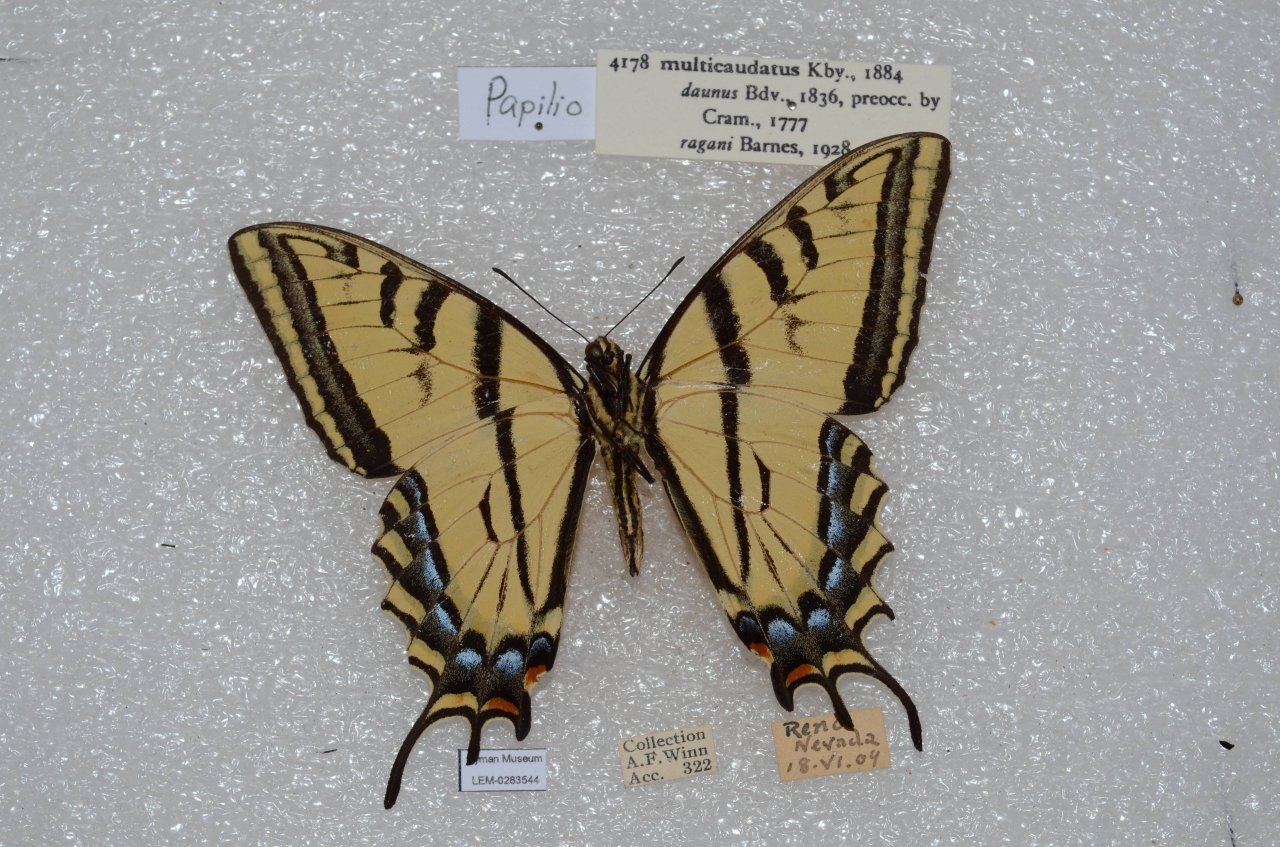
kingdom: Animalia
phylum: Arthropoda
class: Insecta
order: Lepidoptera
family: Papilionidae
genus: Papilio
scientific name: Papilio multicaudata
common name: Two-tailed Swallowtail
